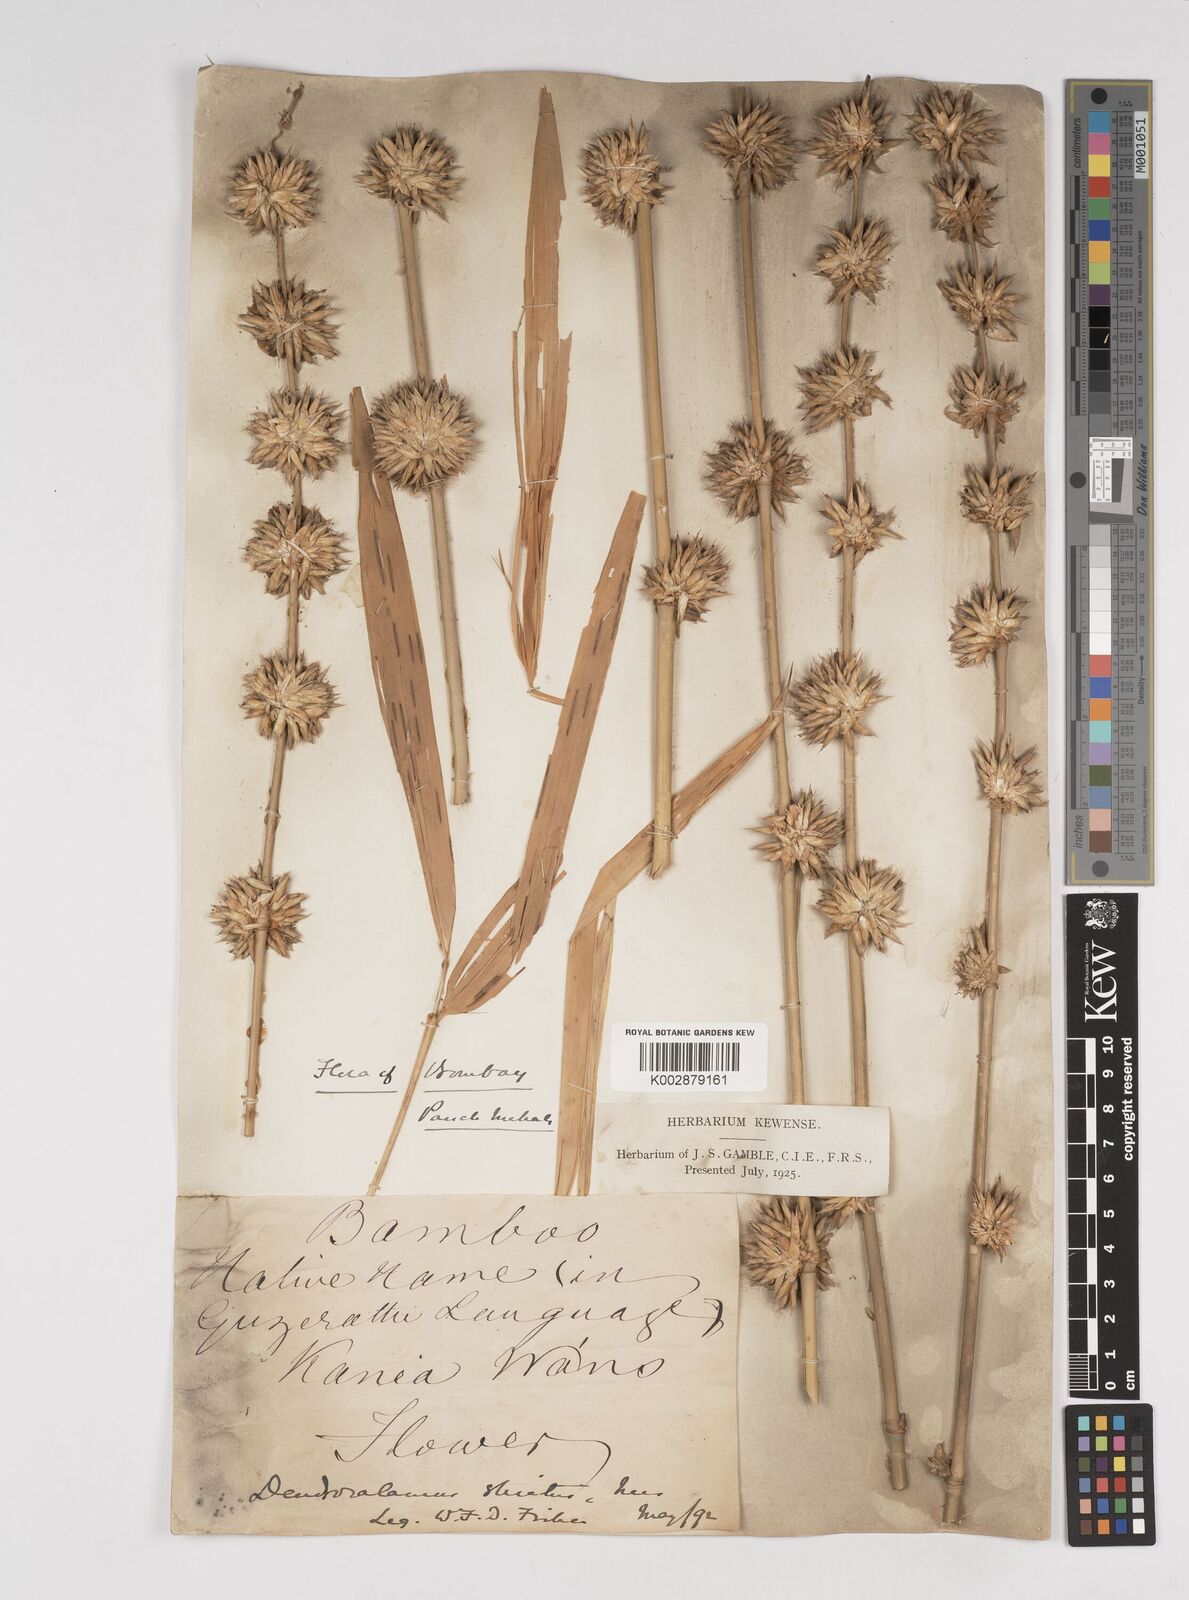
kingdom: Plantae
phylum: Tracheophyta
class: Liliopsida
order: Poales
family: Poaceae
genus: Dendrocalamus
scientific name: Dendrocalamus strictus
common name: Male bamboo
